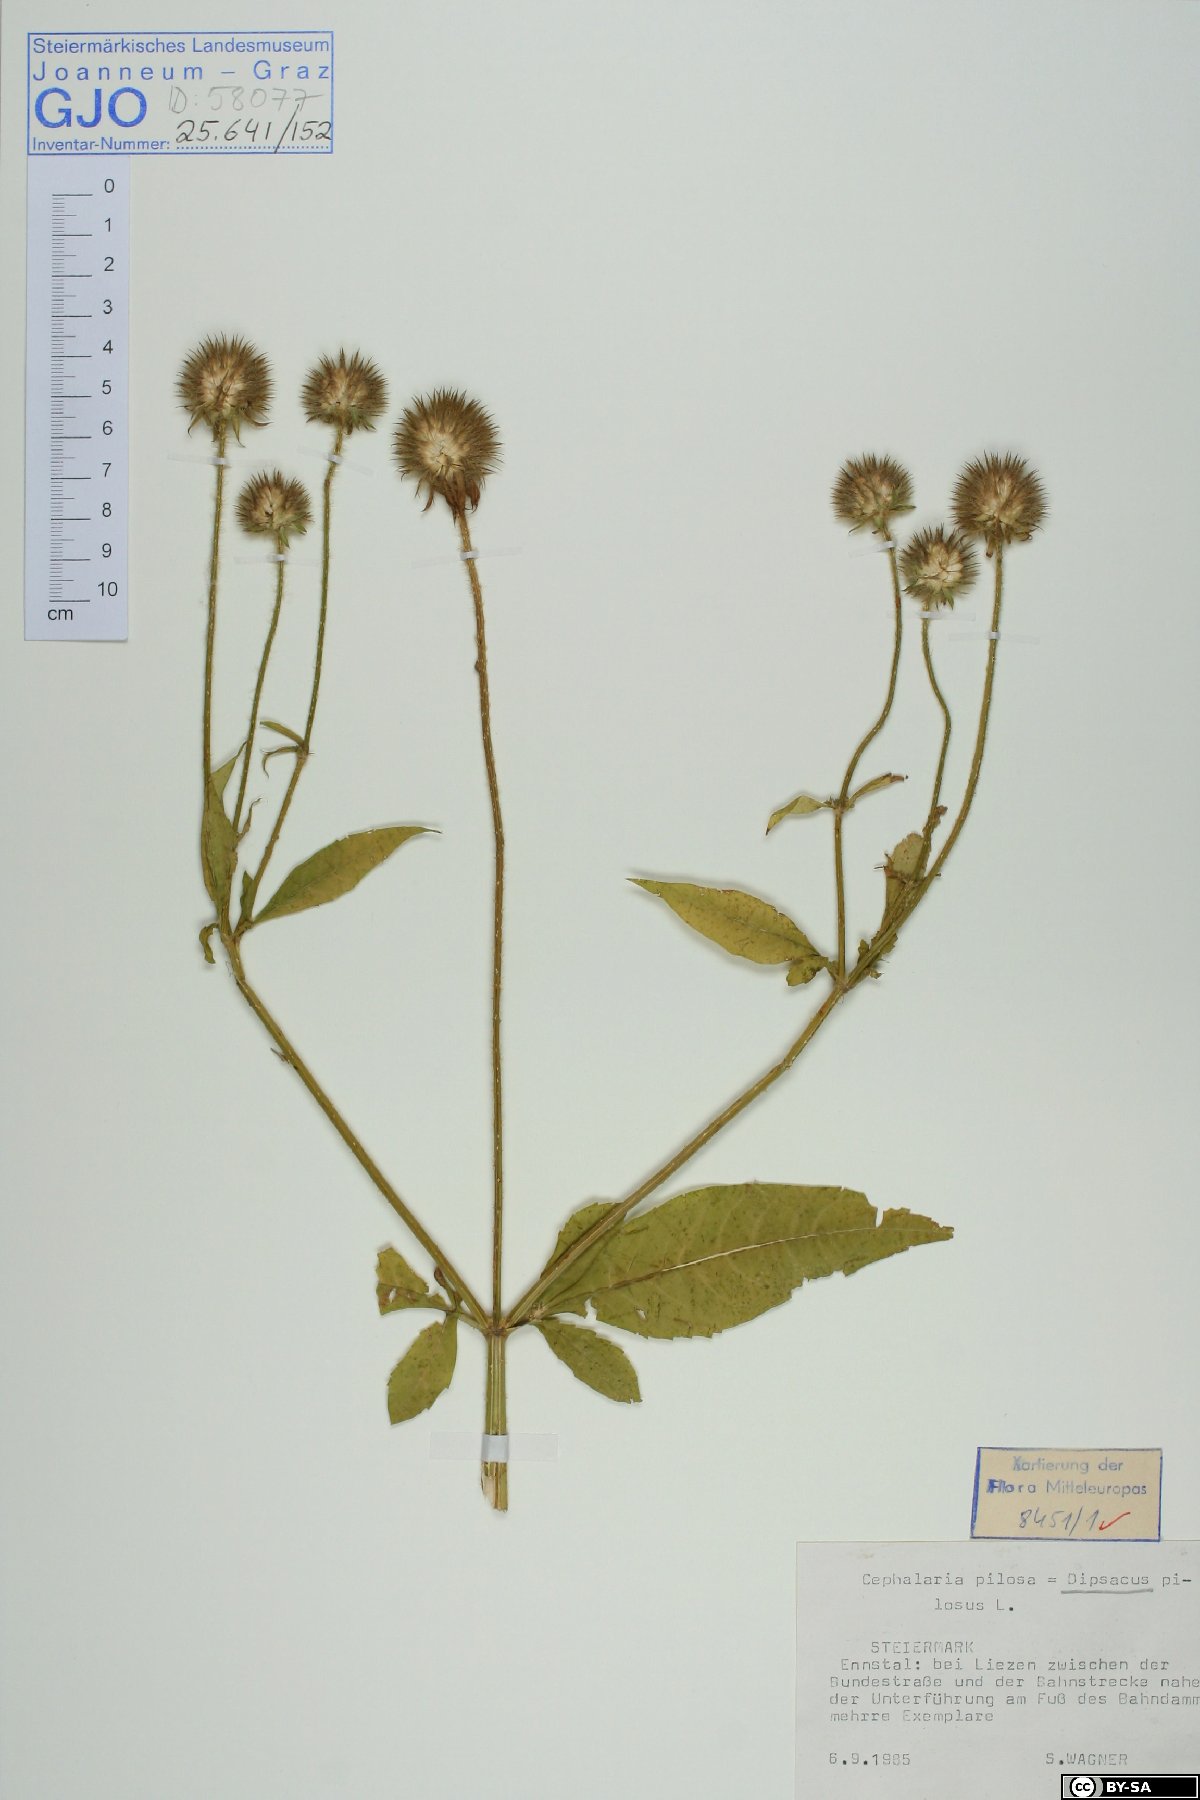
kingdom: Plantae
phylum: Tracheophyta
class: Magnoliopsida
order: Dipsacales
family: Caprifoliaceae
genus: Dipsacus
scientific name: Dipsacus pilosus
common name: Small teasel
